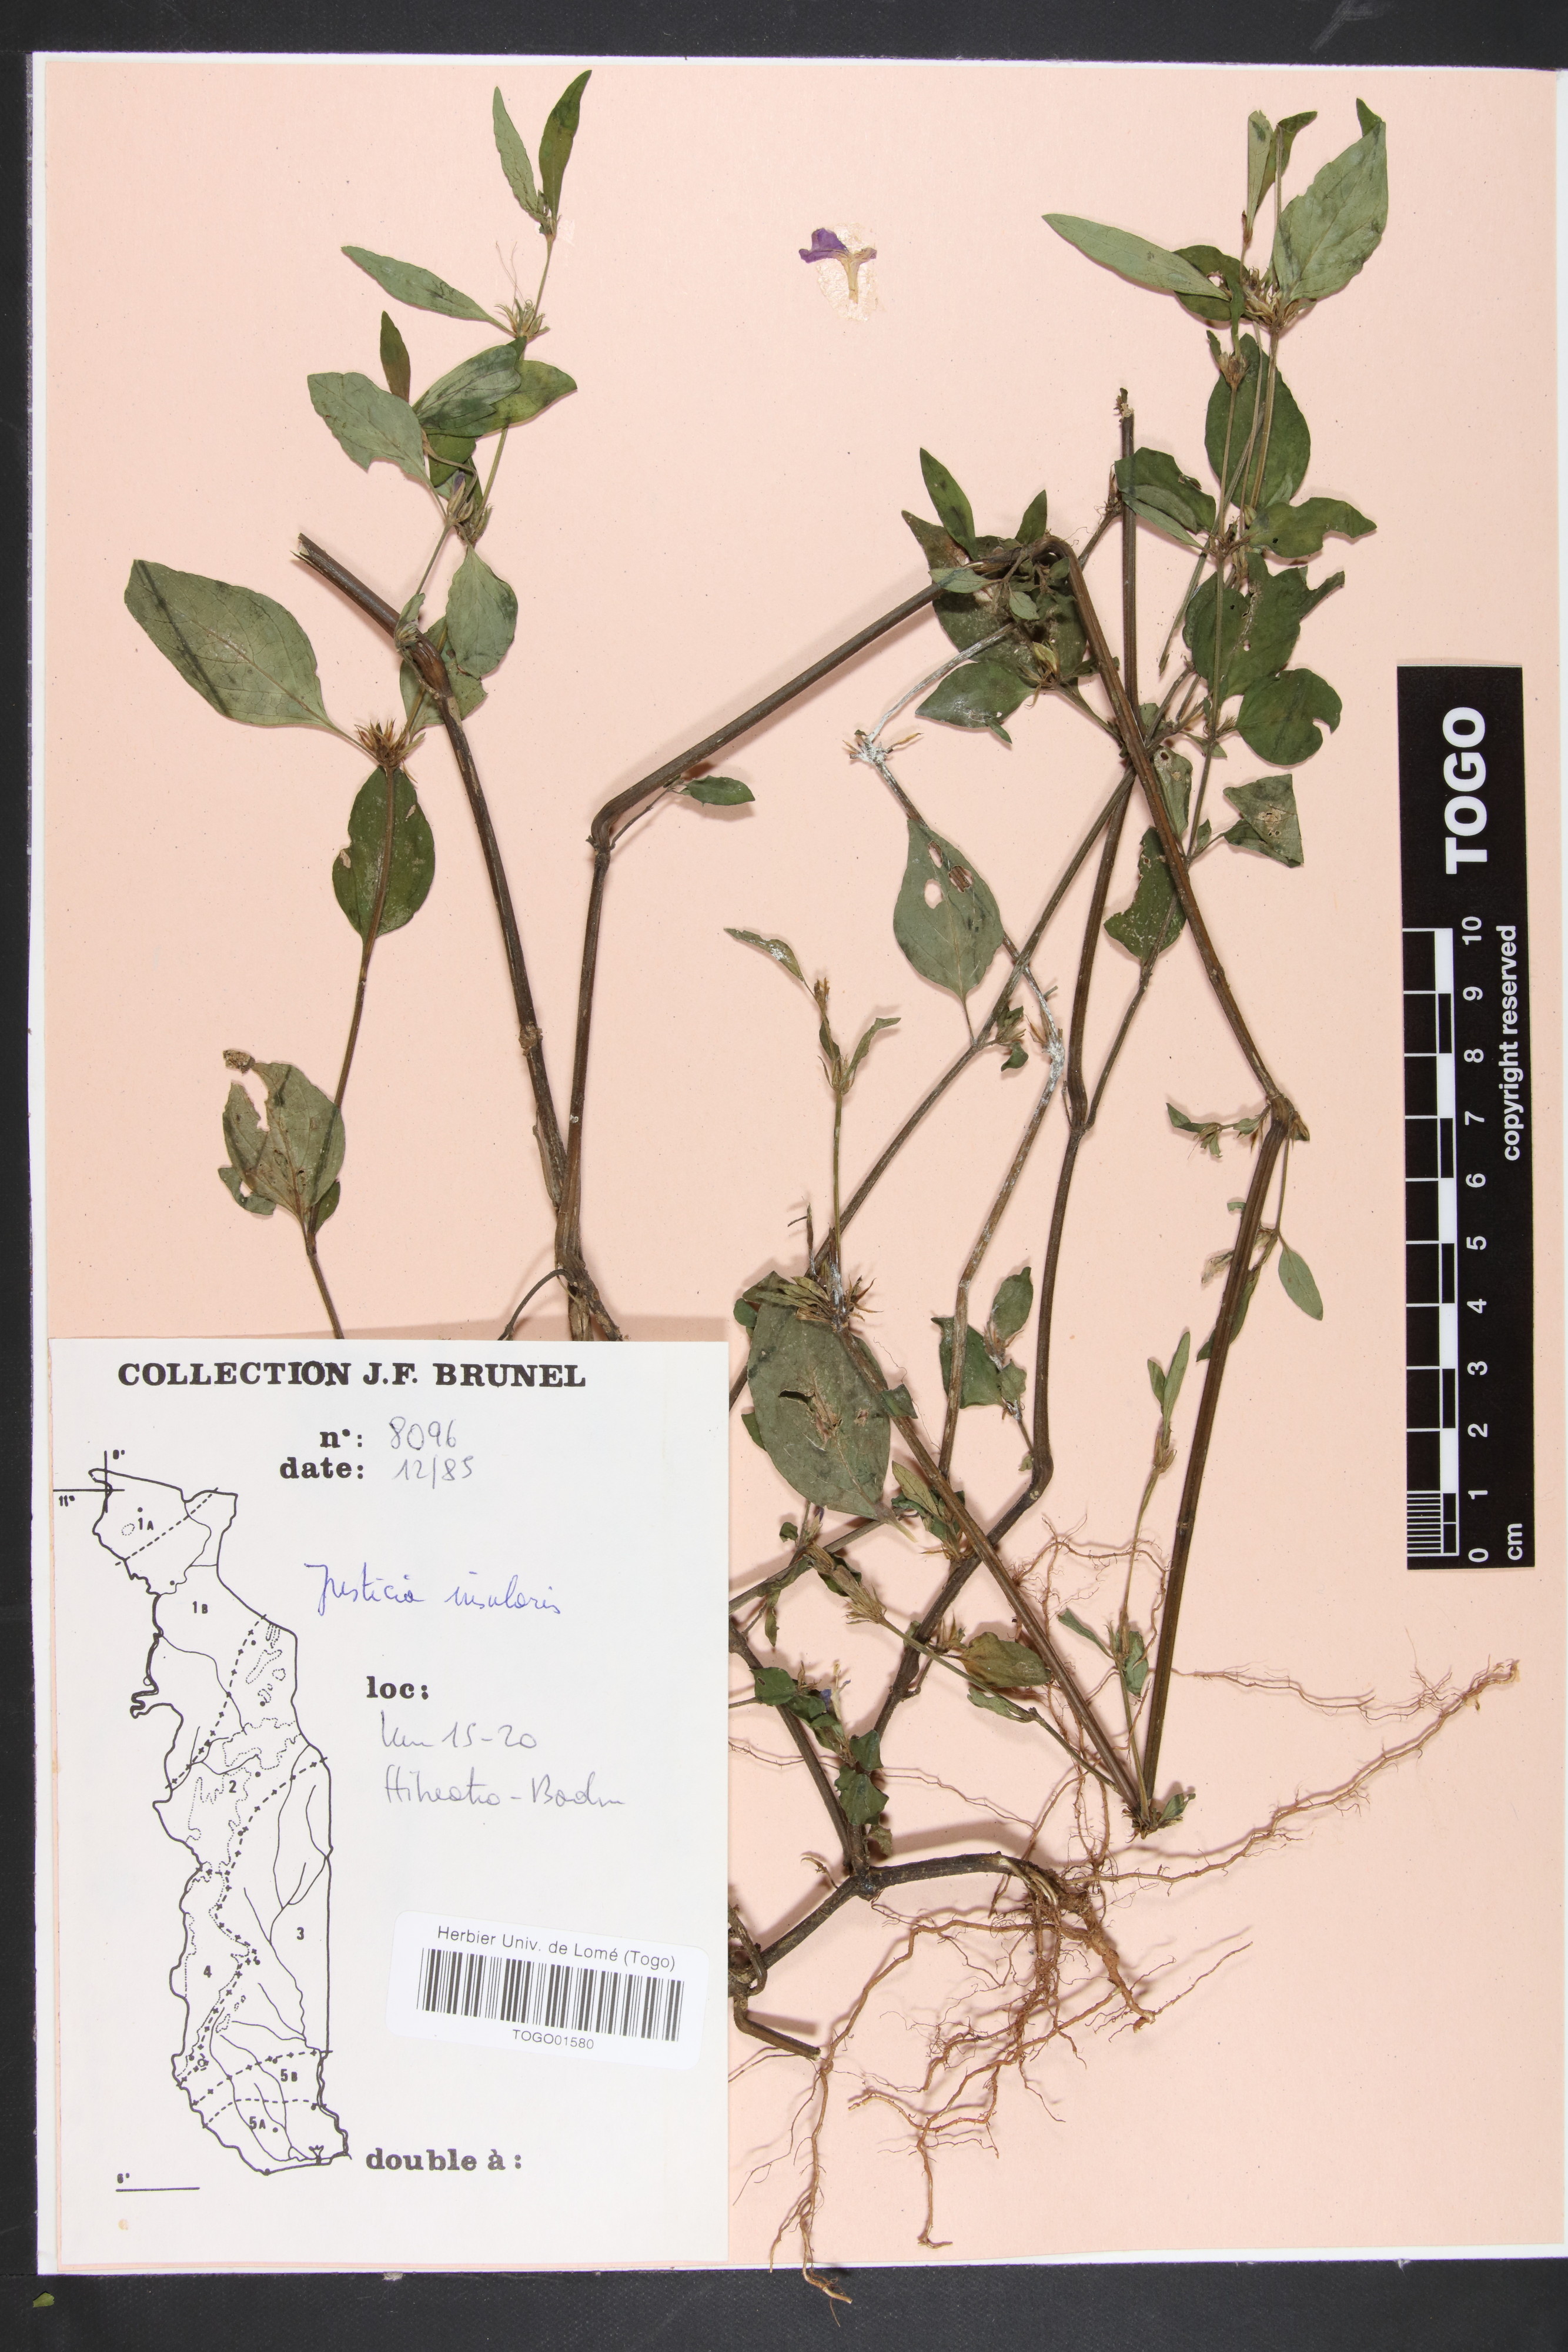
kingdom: Plantae
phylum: Tracheophyta
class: Magnoliopsida
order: Lamiales
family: Acanthaceae
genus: Justicia
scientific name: Justicia insularis
